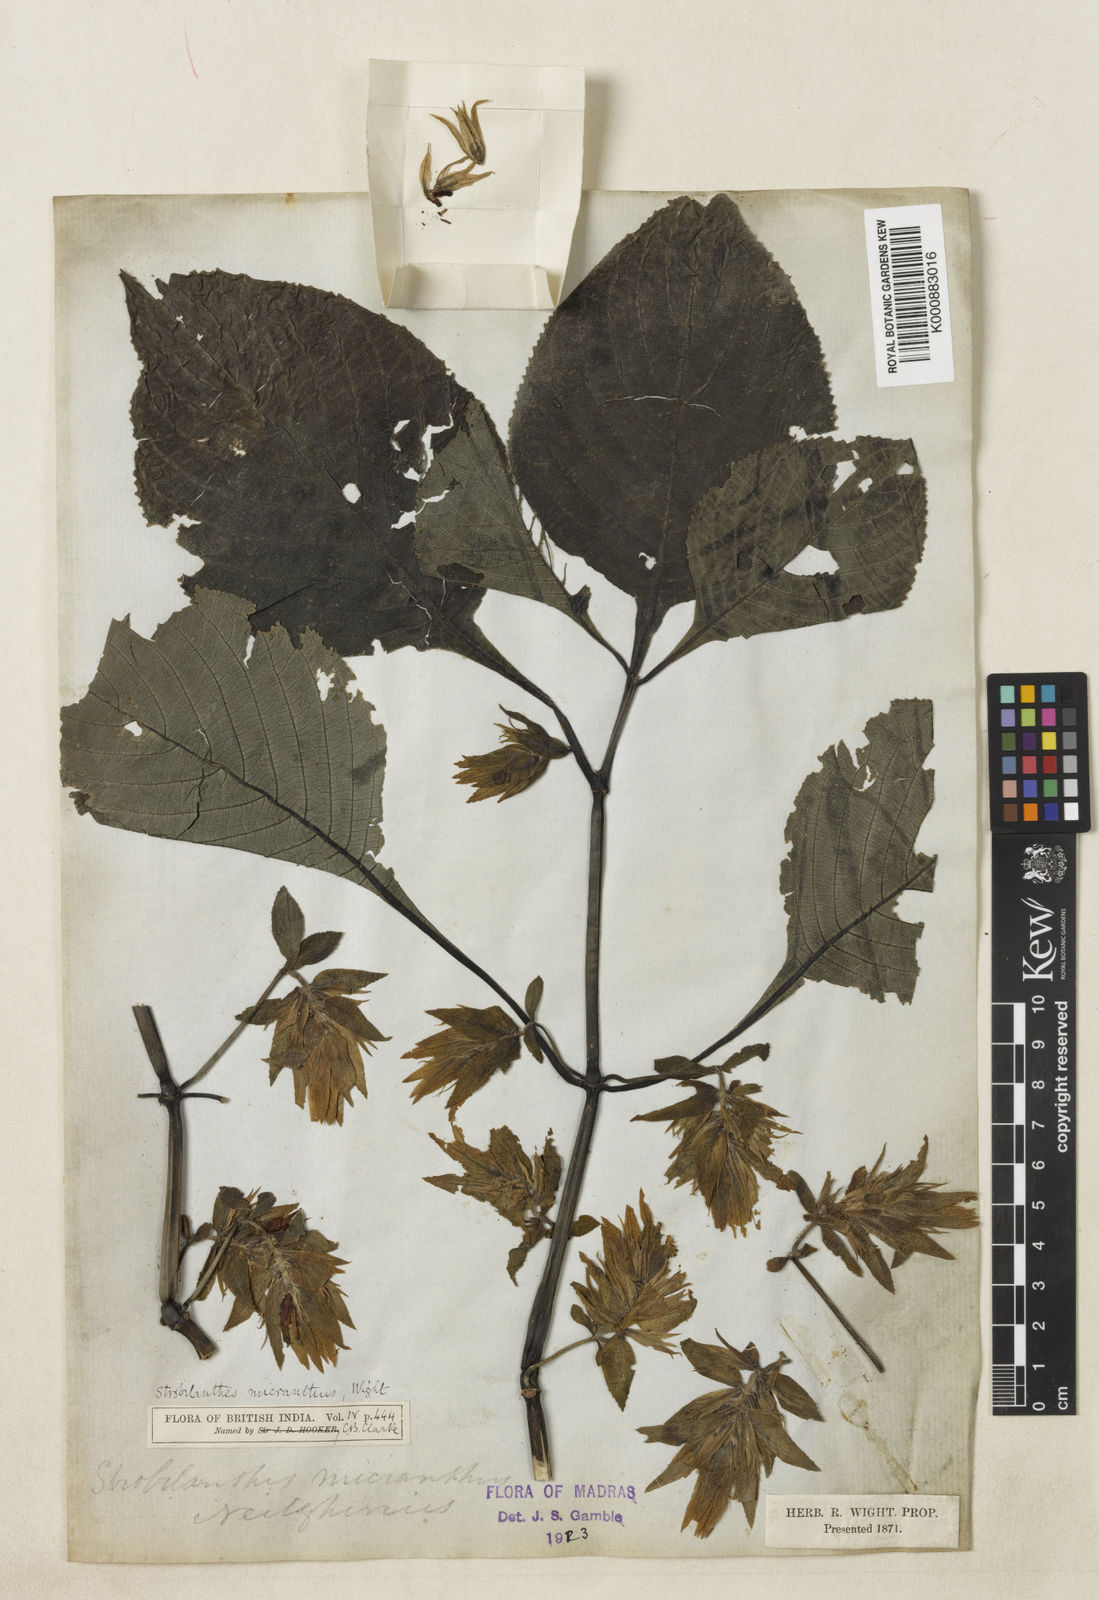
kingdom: Plantae
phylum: Tracheophyta
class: Magnoliopsida
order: Lamiales
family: Acanthaceae
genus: Strobilanthes
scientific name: Strobilanthes micrantha
